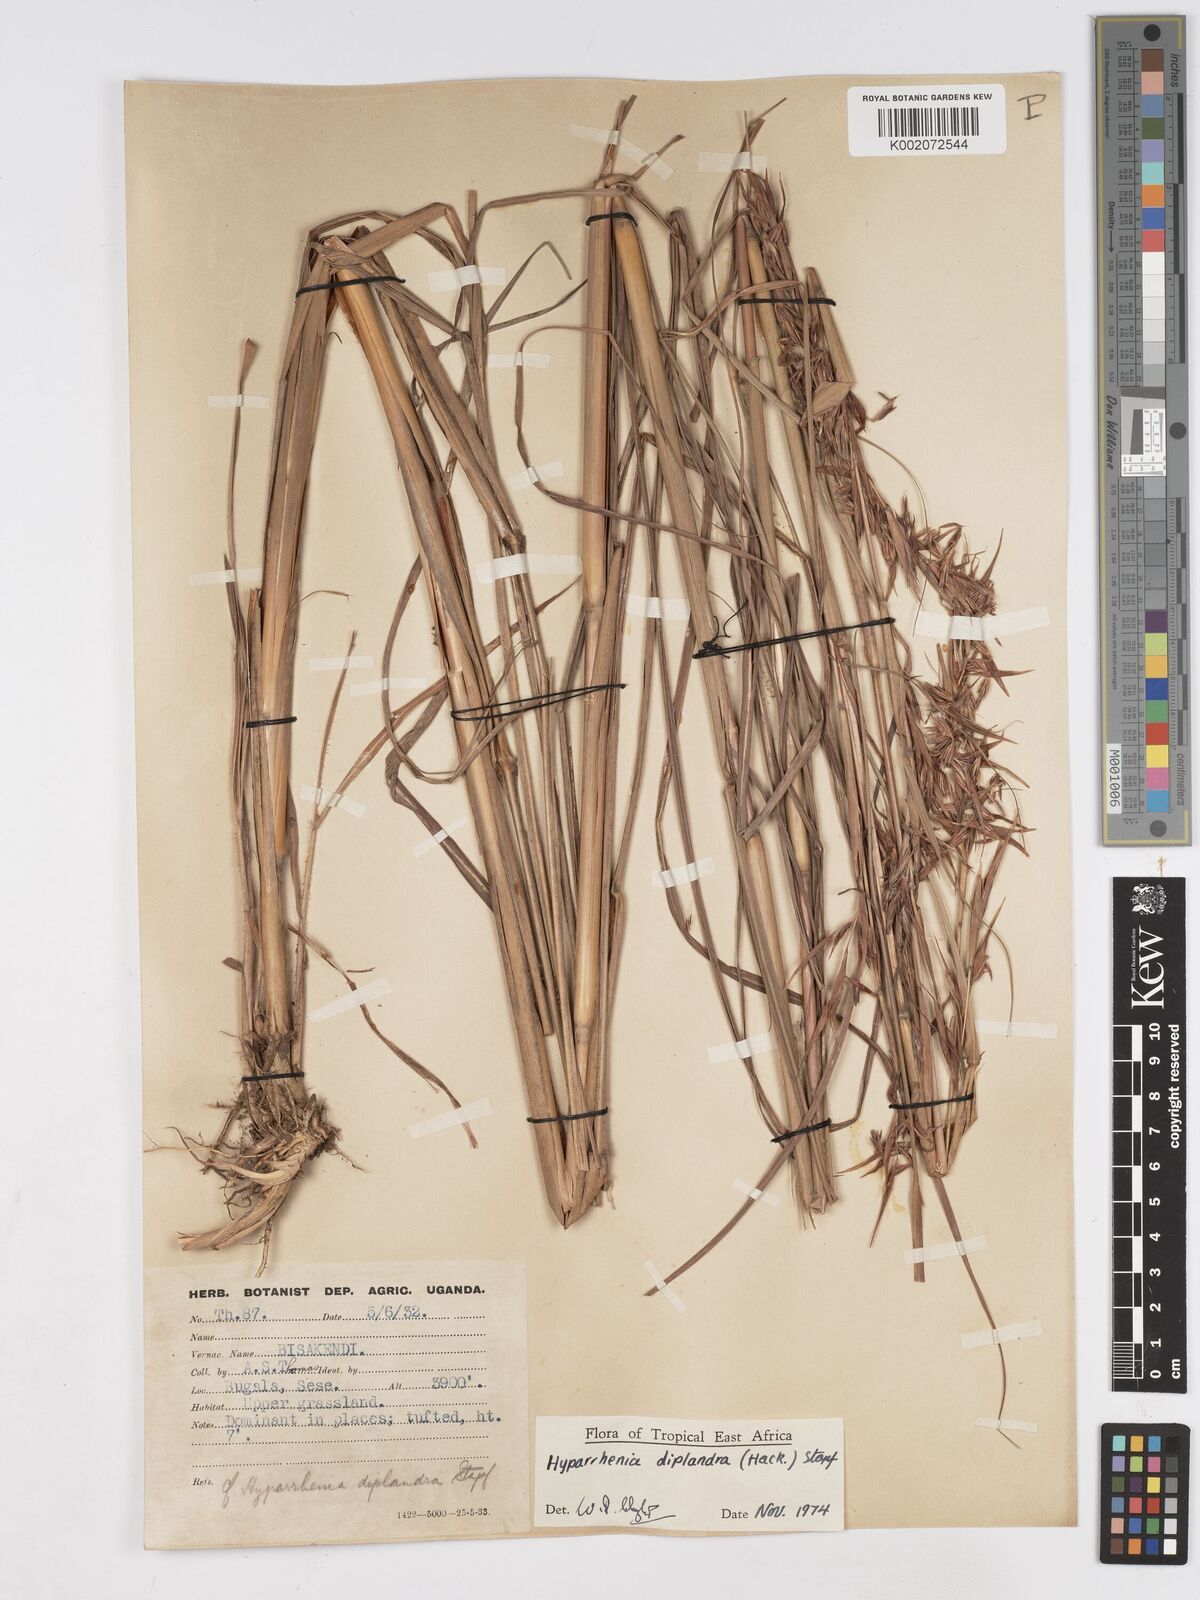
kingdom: Plantae
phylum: Tracheophyta
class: Liliopsida
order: Poales
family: Poaceae
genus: Hyparrhenia
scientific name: Hyparrhenia diplandra
